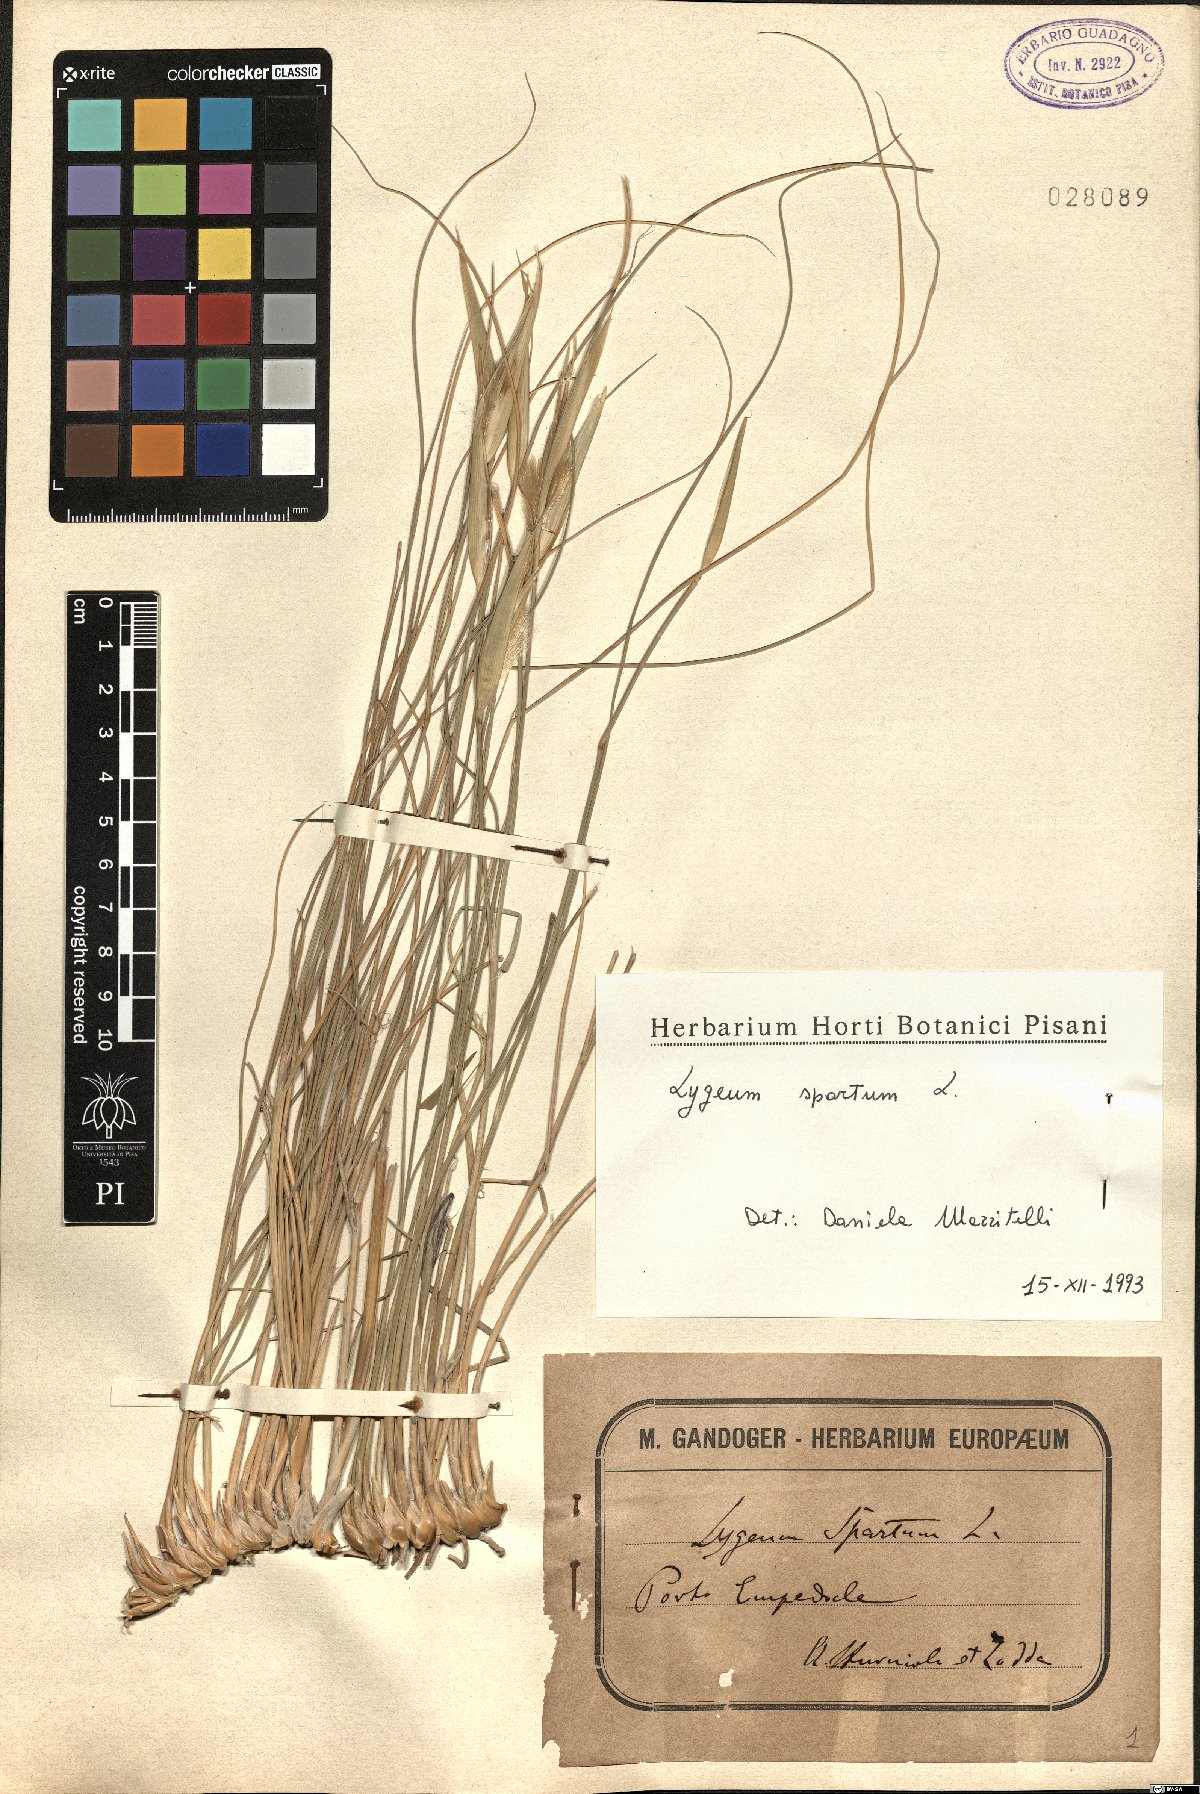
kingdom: Plantae
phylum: Tracheophyta
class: Liliopsida
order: Poales
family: Poaceae
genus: Lygeum
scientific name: Lygeum spartum
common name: Albardine
